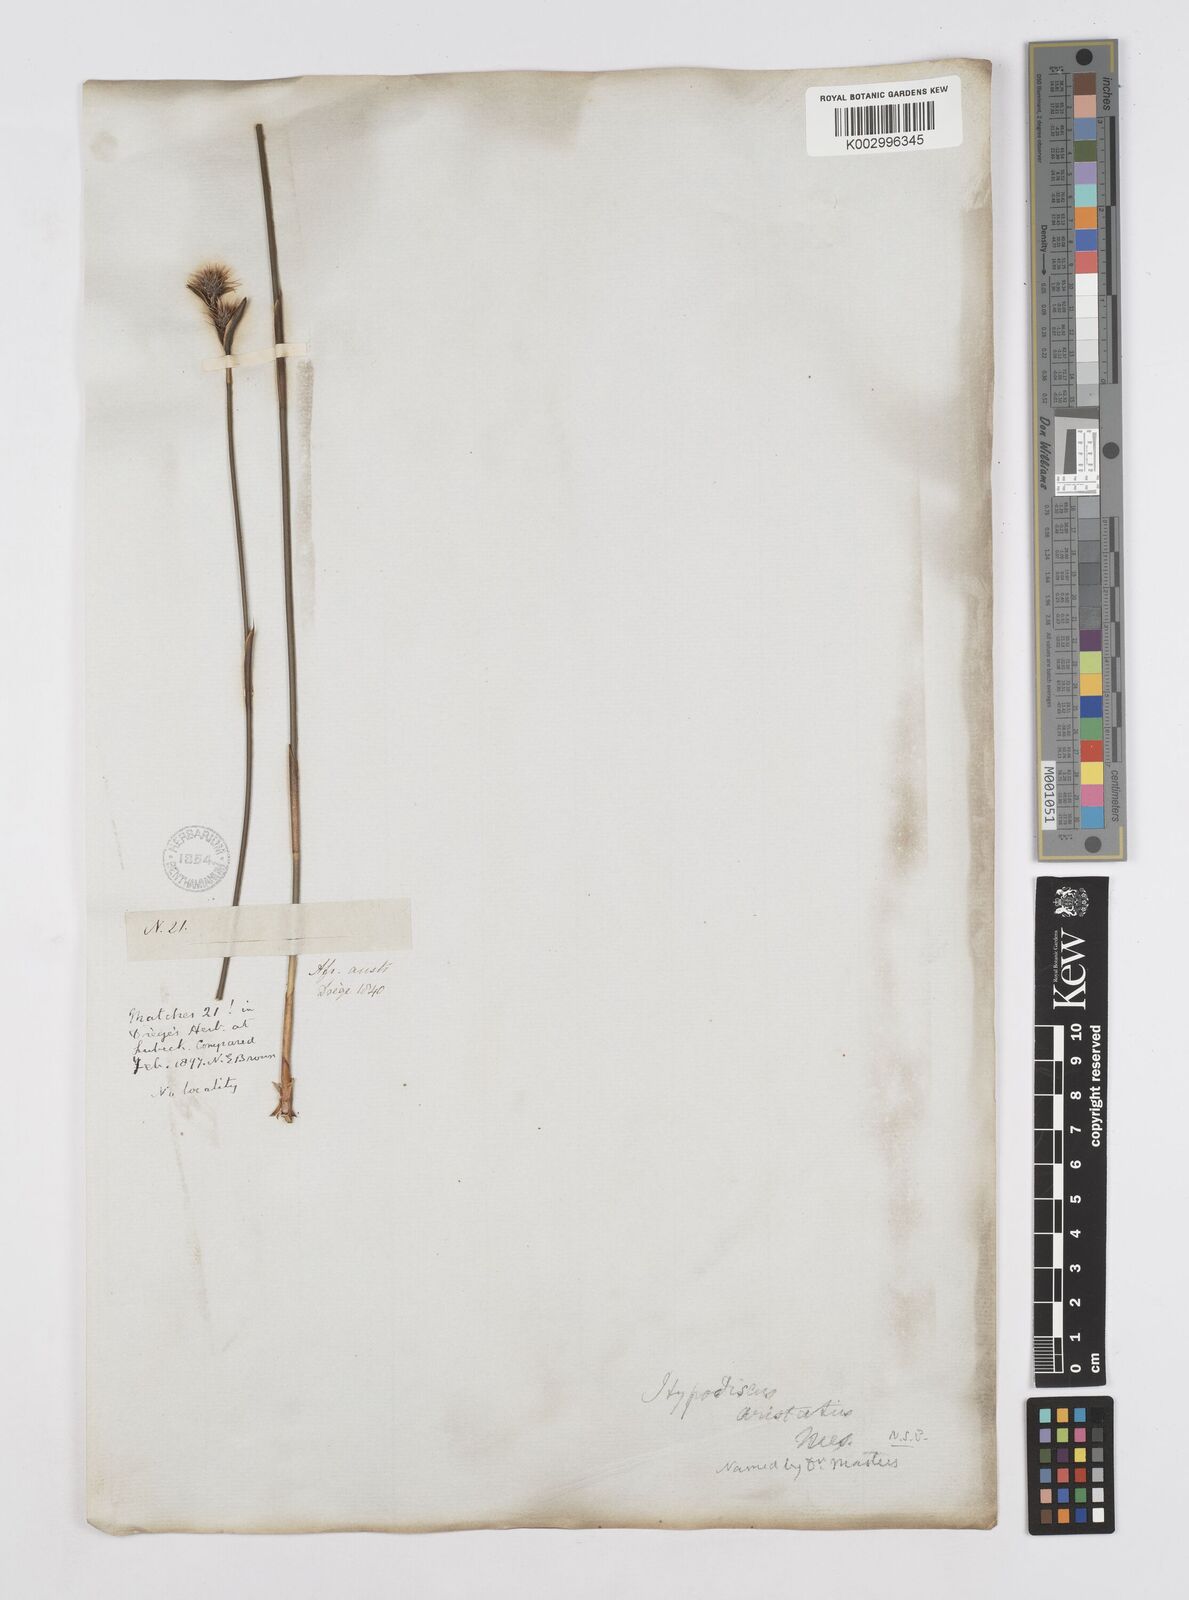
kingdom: Plantae
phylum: Tracheophyta
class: Liliopsida
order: Poales
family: Restionaceae
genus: Hypodiscus
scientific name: Hypodiscus aristatus
